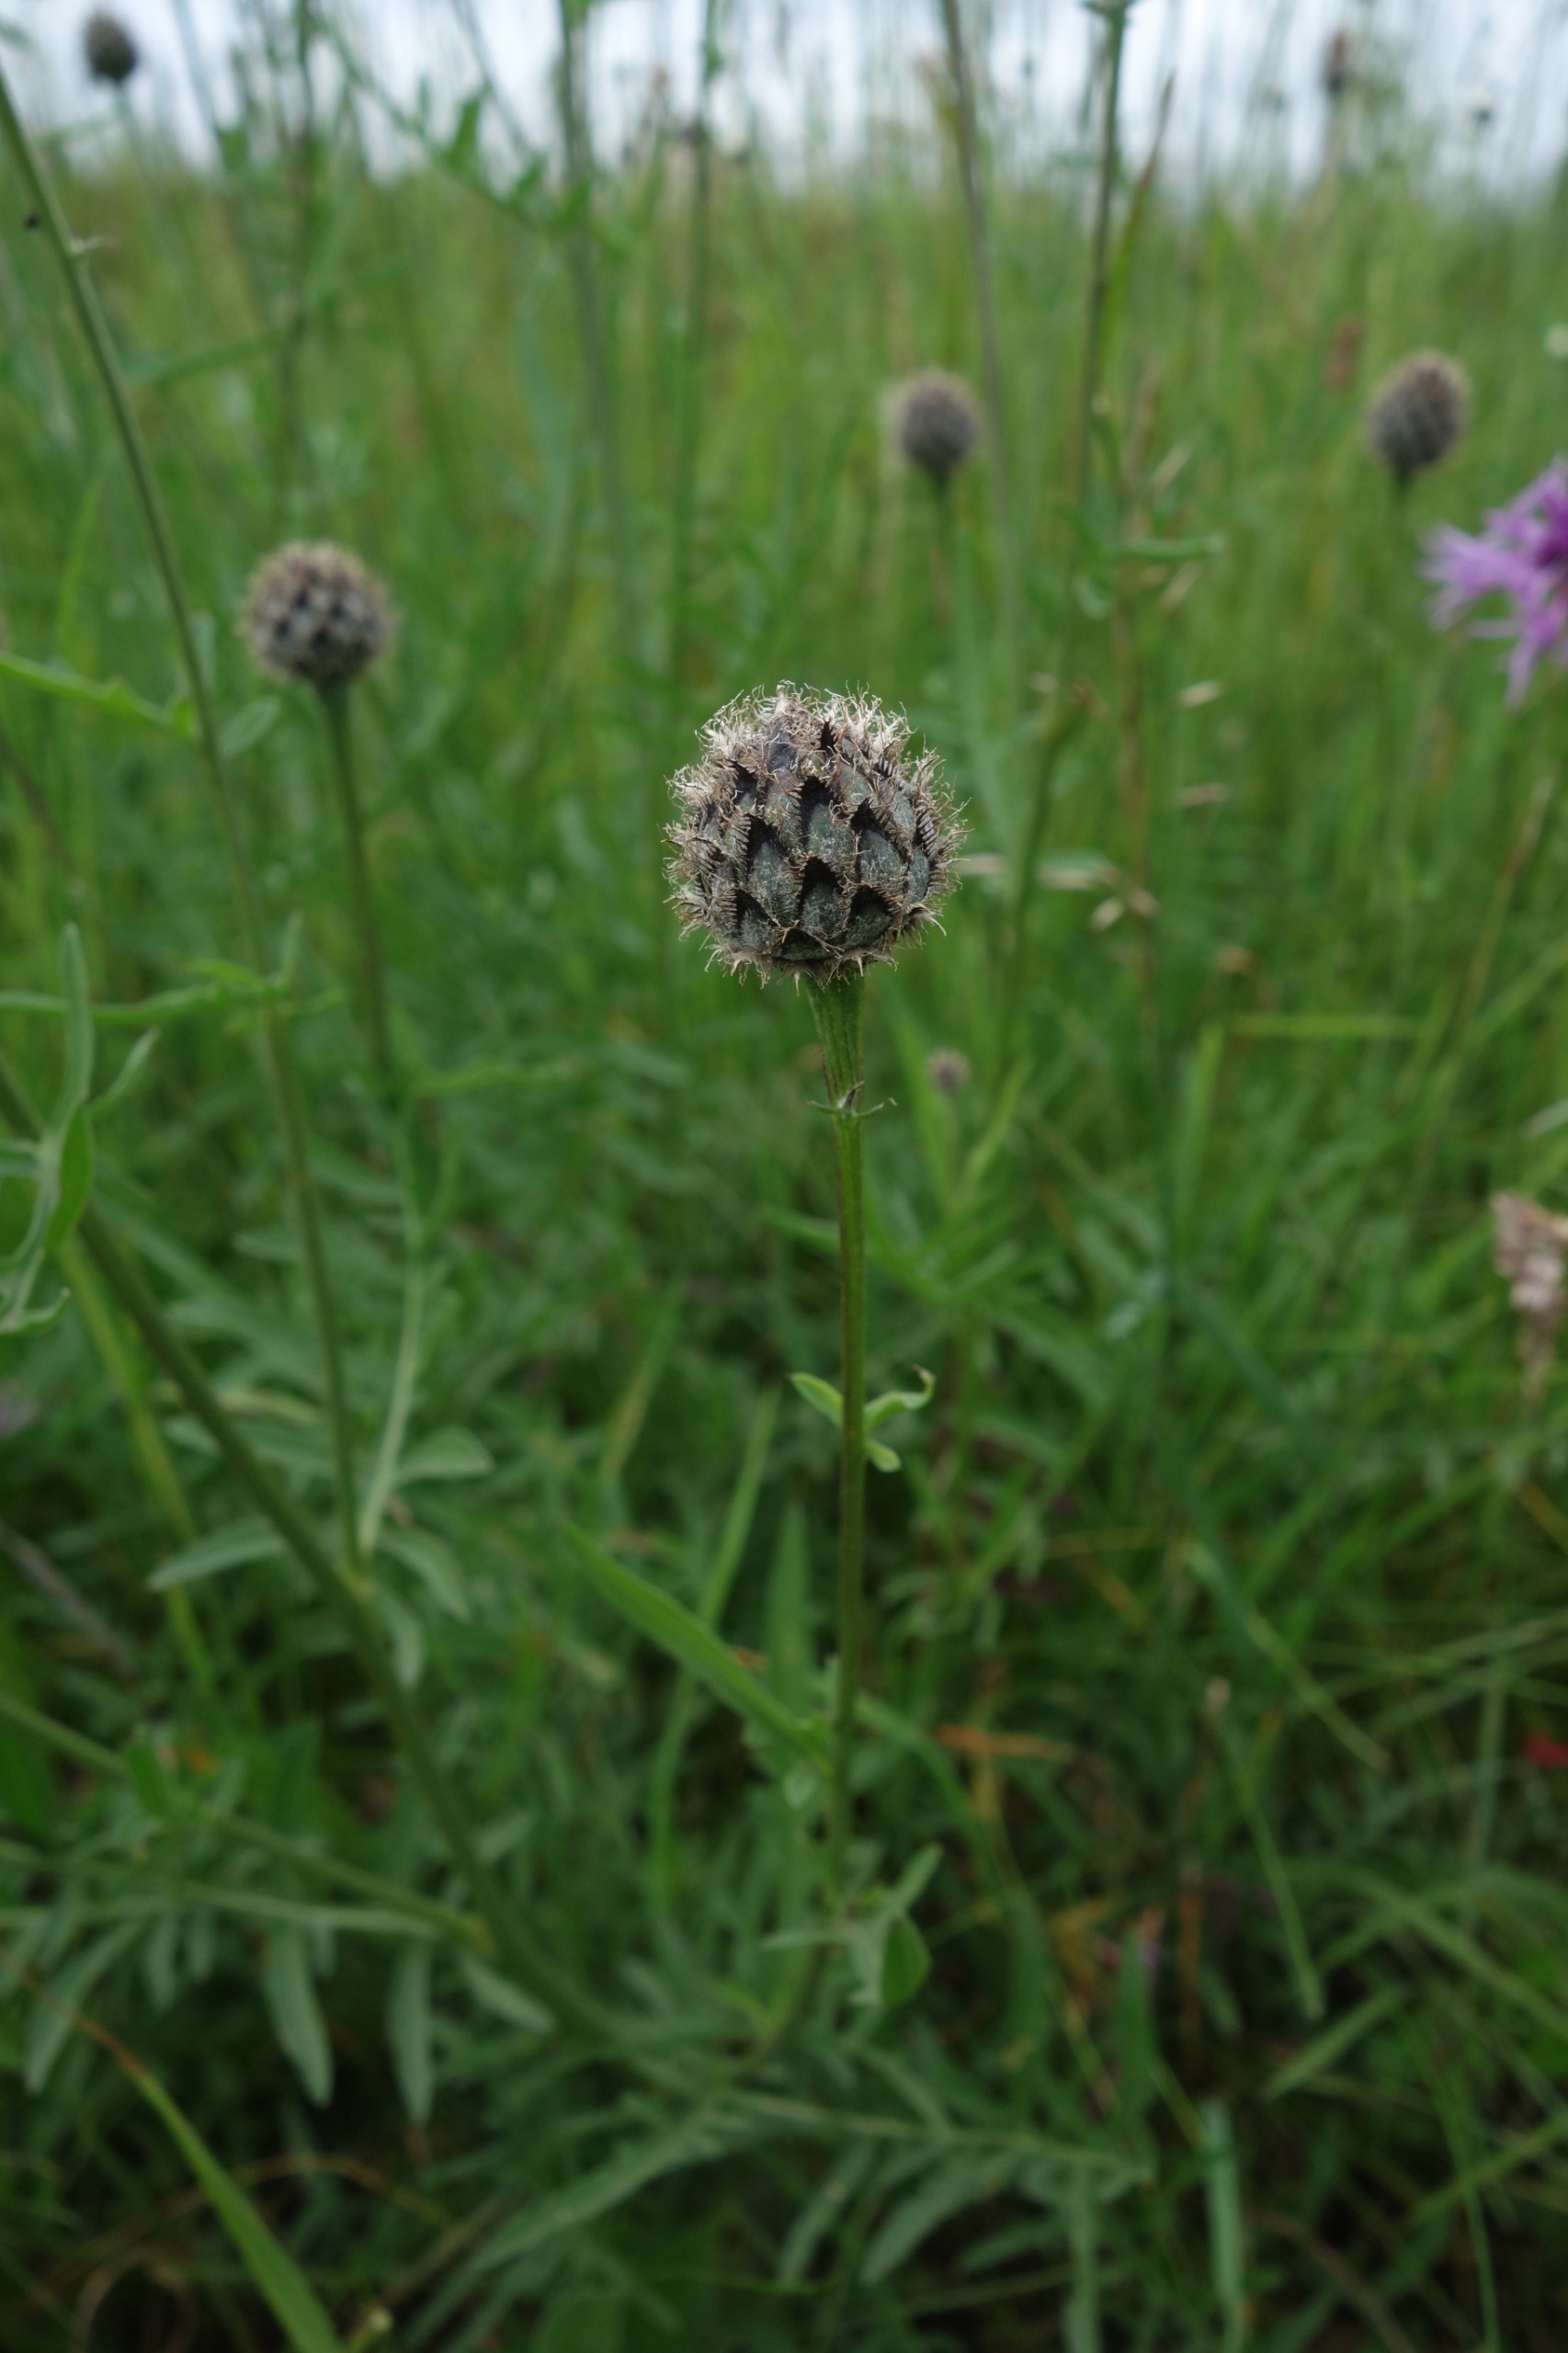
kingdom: Plantae
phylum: Tracheophyta
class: Magnoliopsida
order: Asterales
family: Asteraceae
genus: Centaurea
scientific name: Centaurea scabiosa
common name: Stor knopurt
